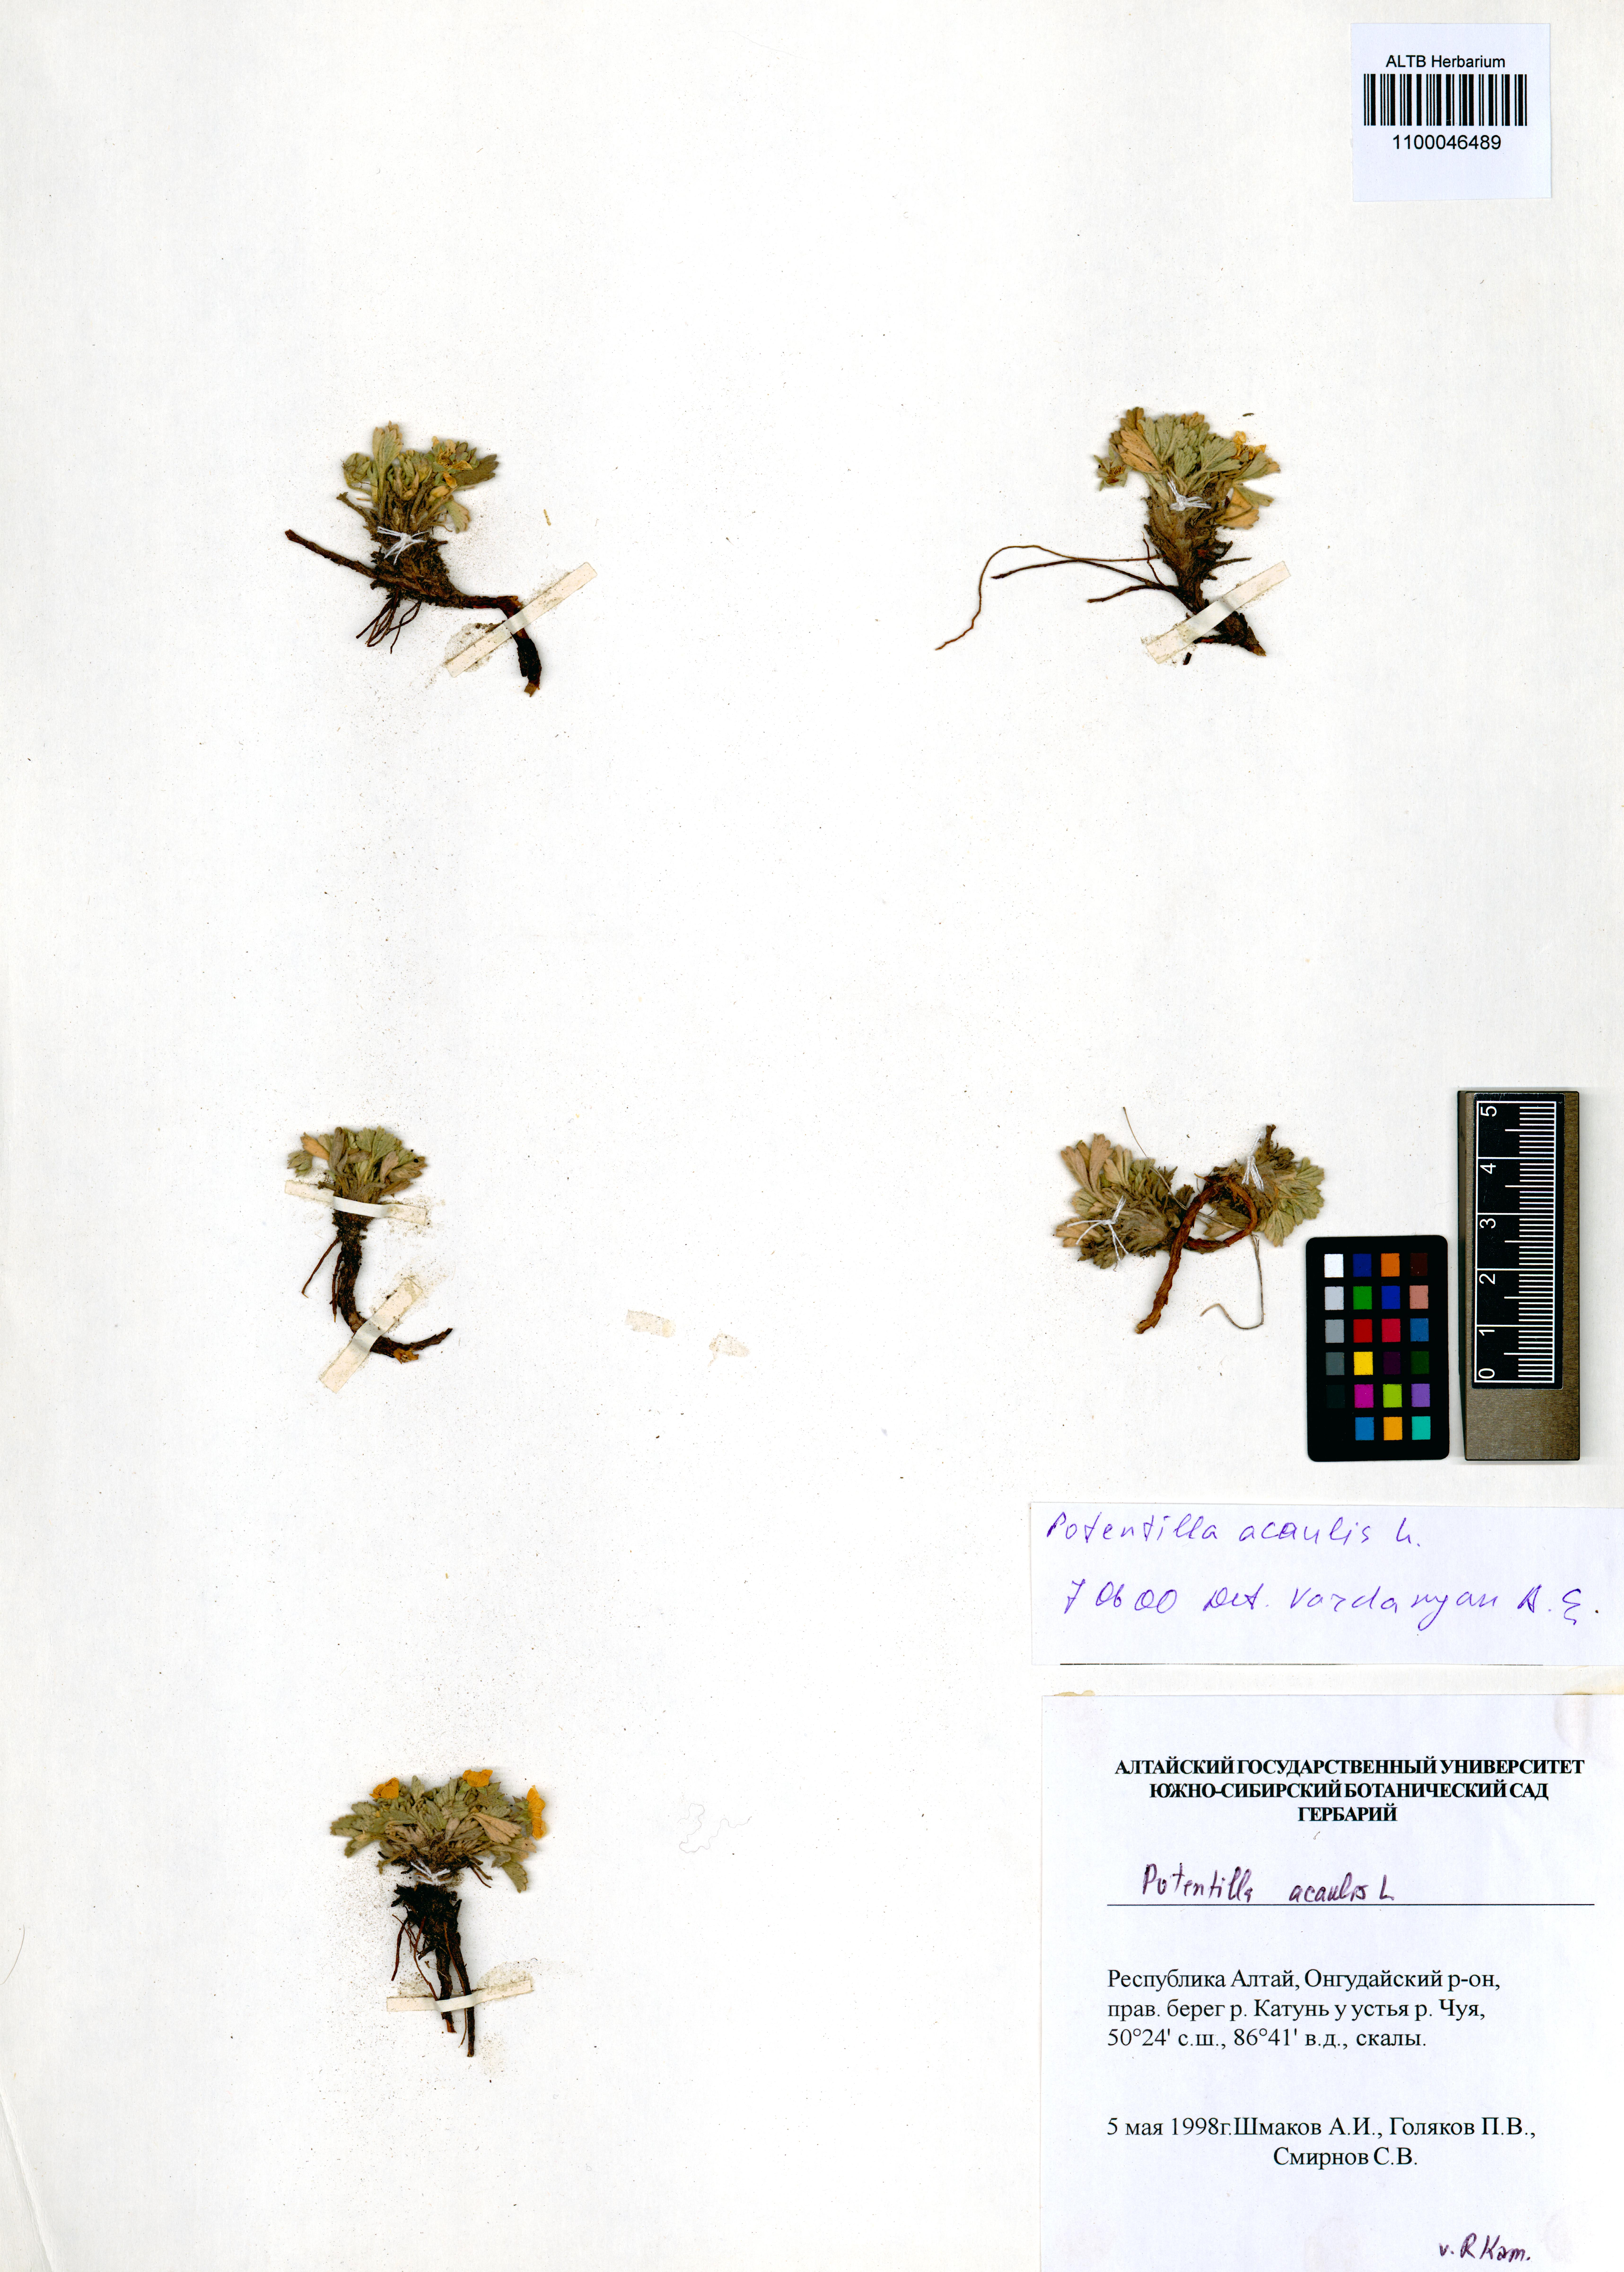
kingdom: Plantae
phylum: Tracheophyta
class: Magnoliopsida
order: Rosales
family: Rosaceae
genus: Potentilla
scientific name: Potentilla acaulis
